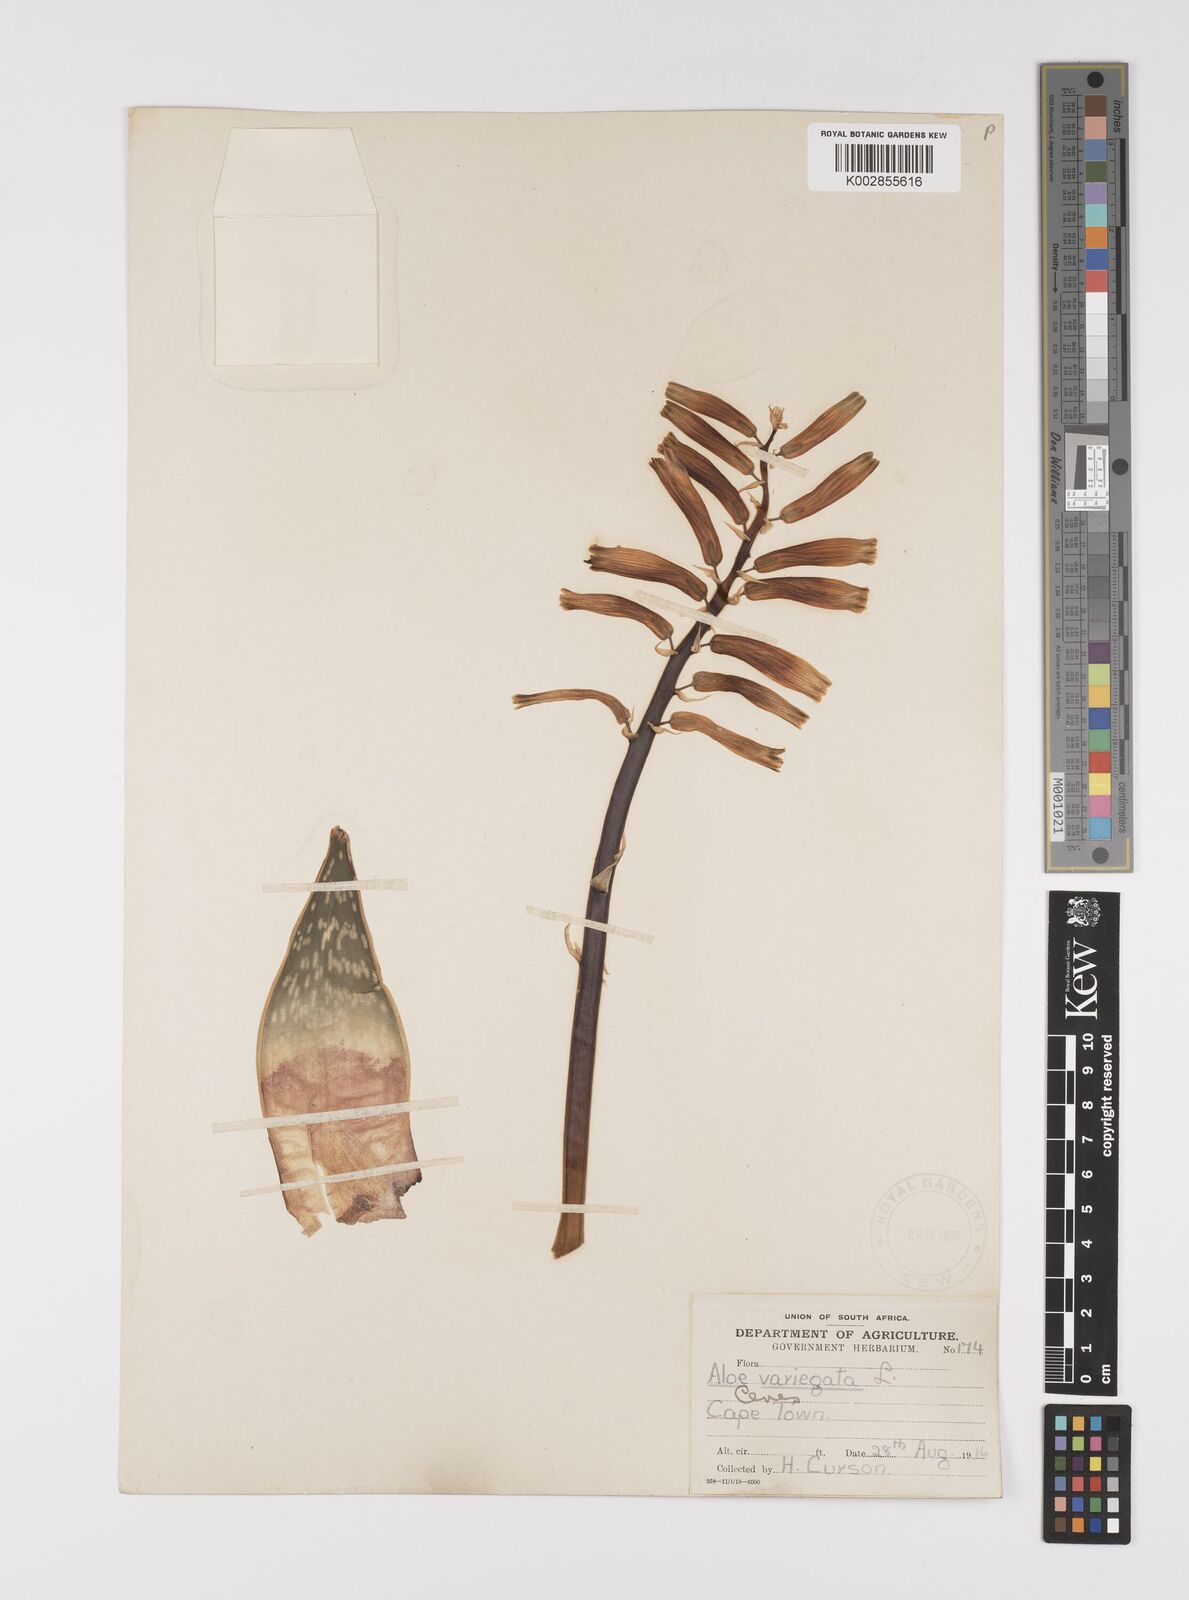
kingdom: Plantae
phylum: Tracheophyta
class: Liliopsida
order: Asparagales
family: Asphodelaceae
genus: Gonialoe
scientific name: Gonialoe variegata
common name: Aloe variegata
